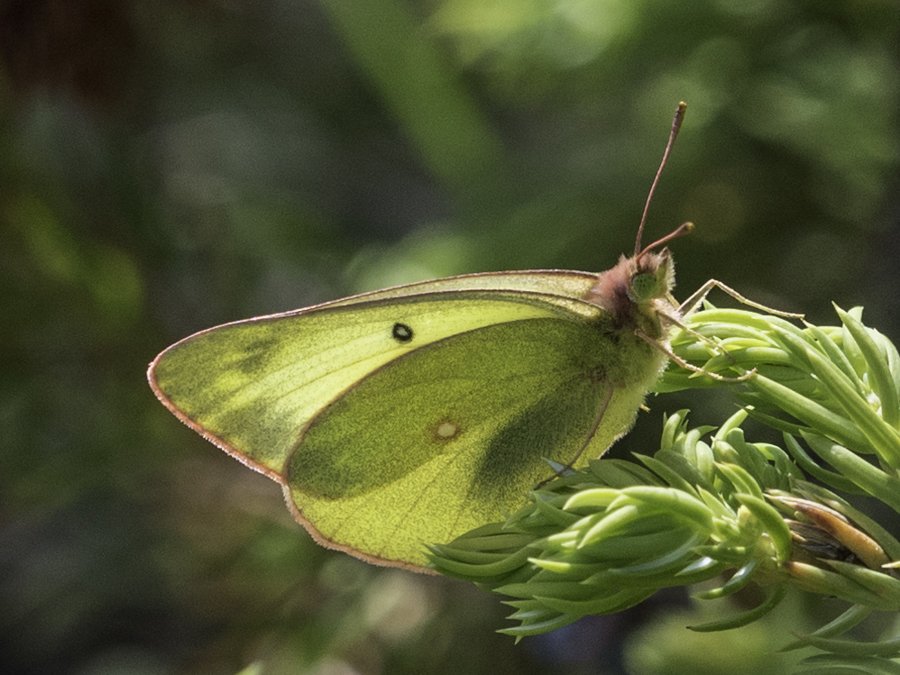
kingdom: Animalia
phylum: Arthropoda
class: Insecta
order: Lepidoptera
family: Pieridae
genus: Colias
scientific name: Colias interior
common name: Pink-edged Sulphur
